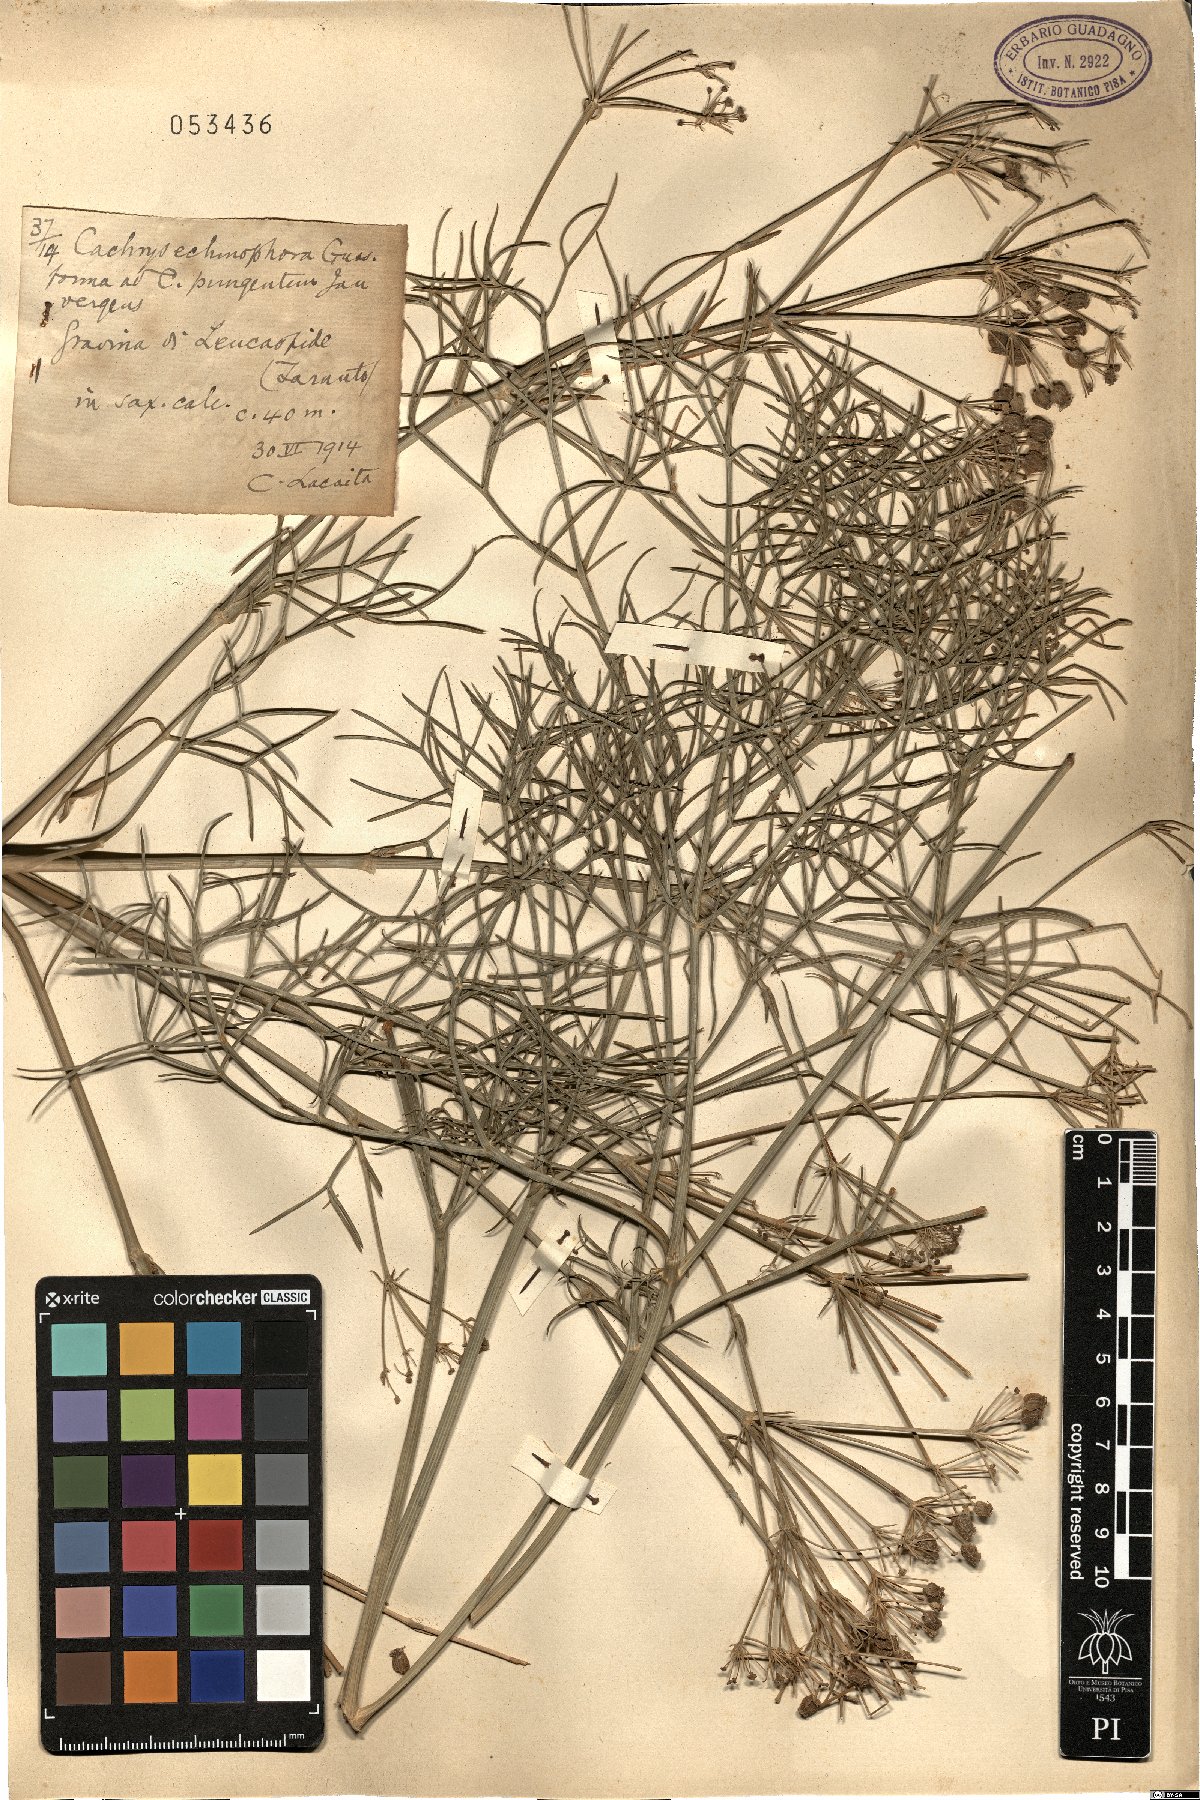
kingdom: Plantae
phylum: Tracheophyta
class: Magnoliopsida
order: Apiales
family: Apiaceae
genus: Cachrys
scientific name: Cachrys cristata
